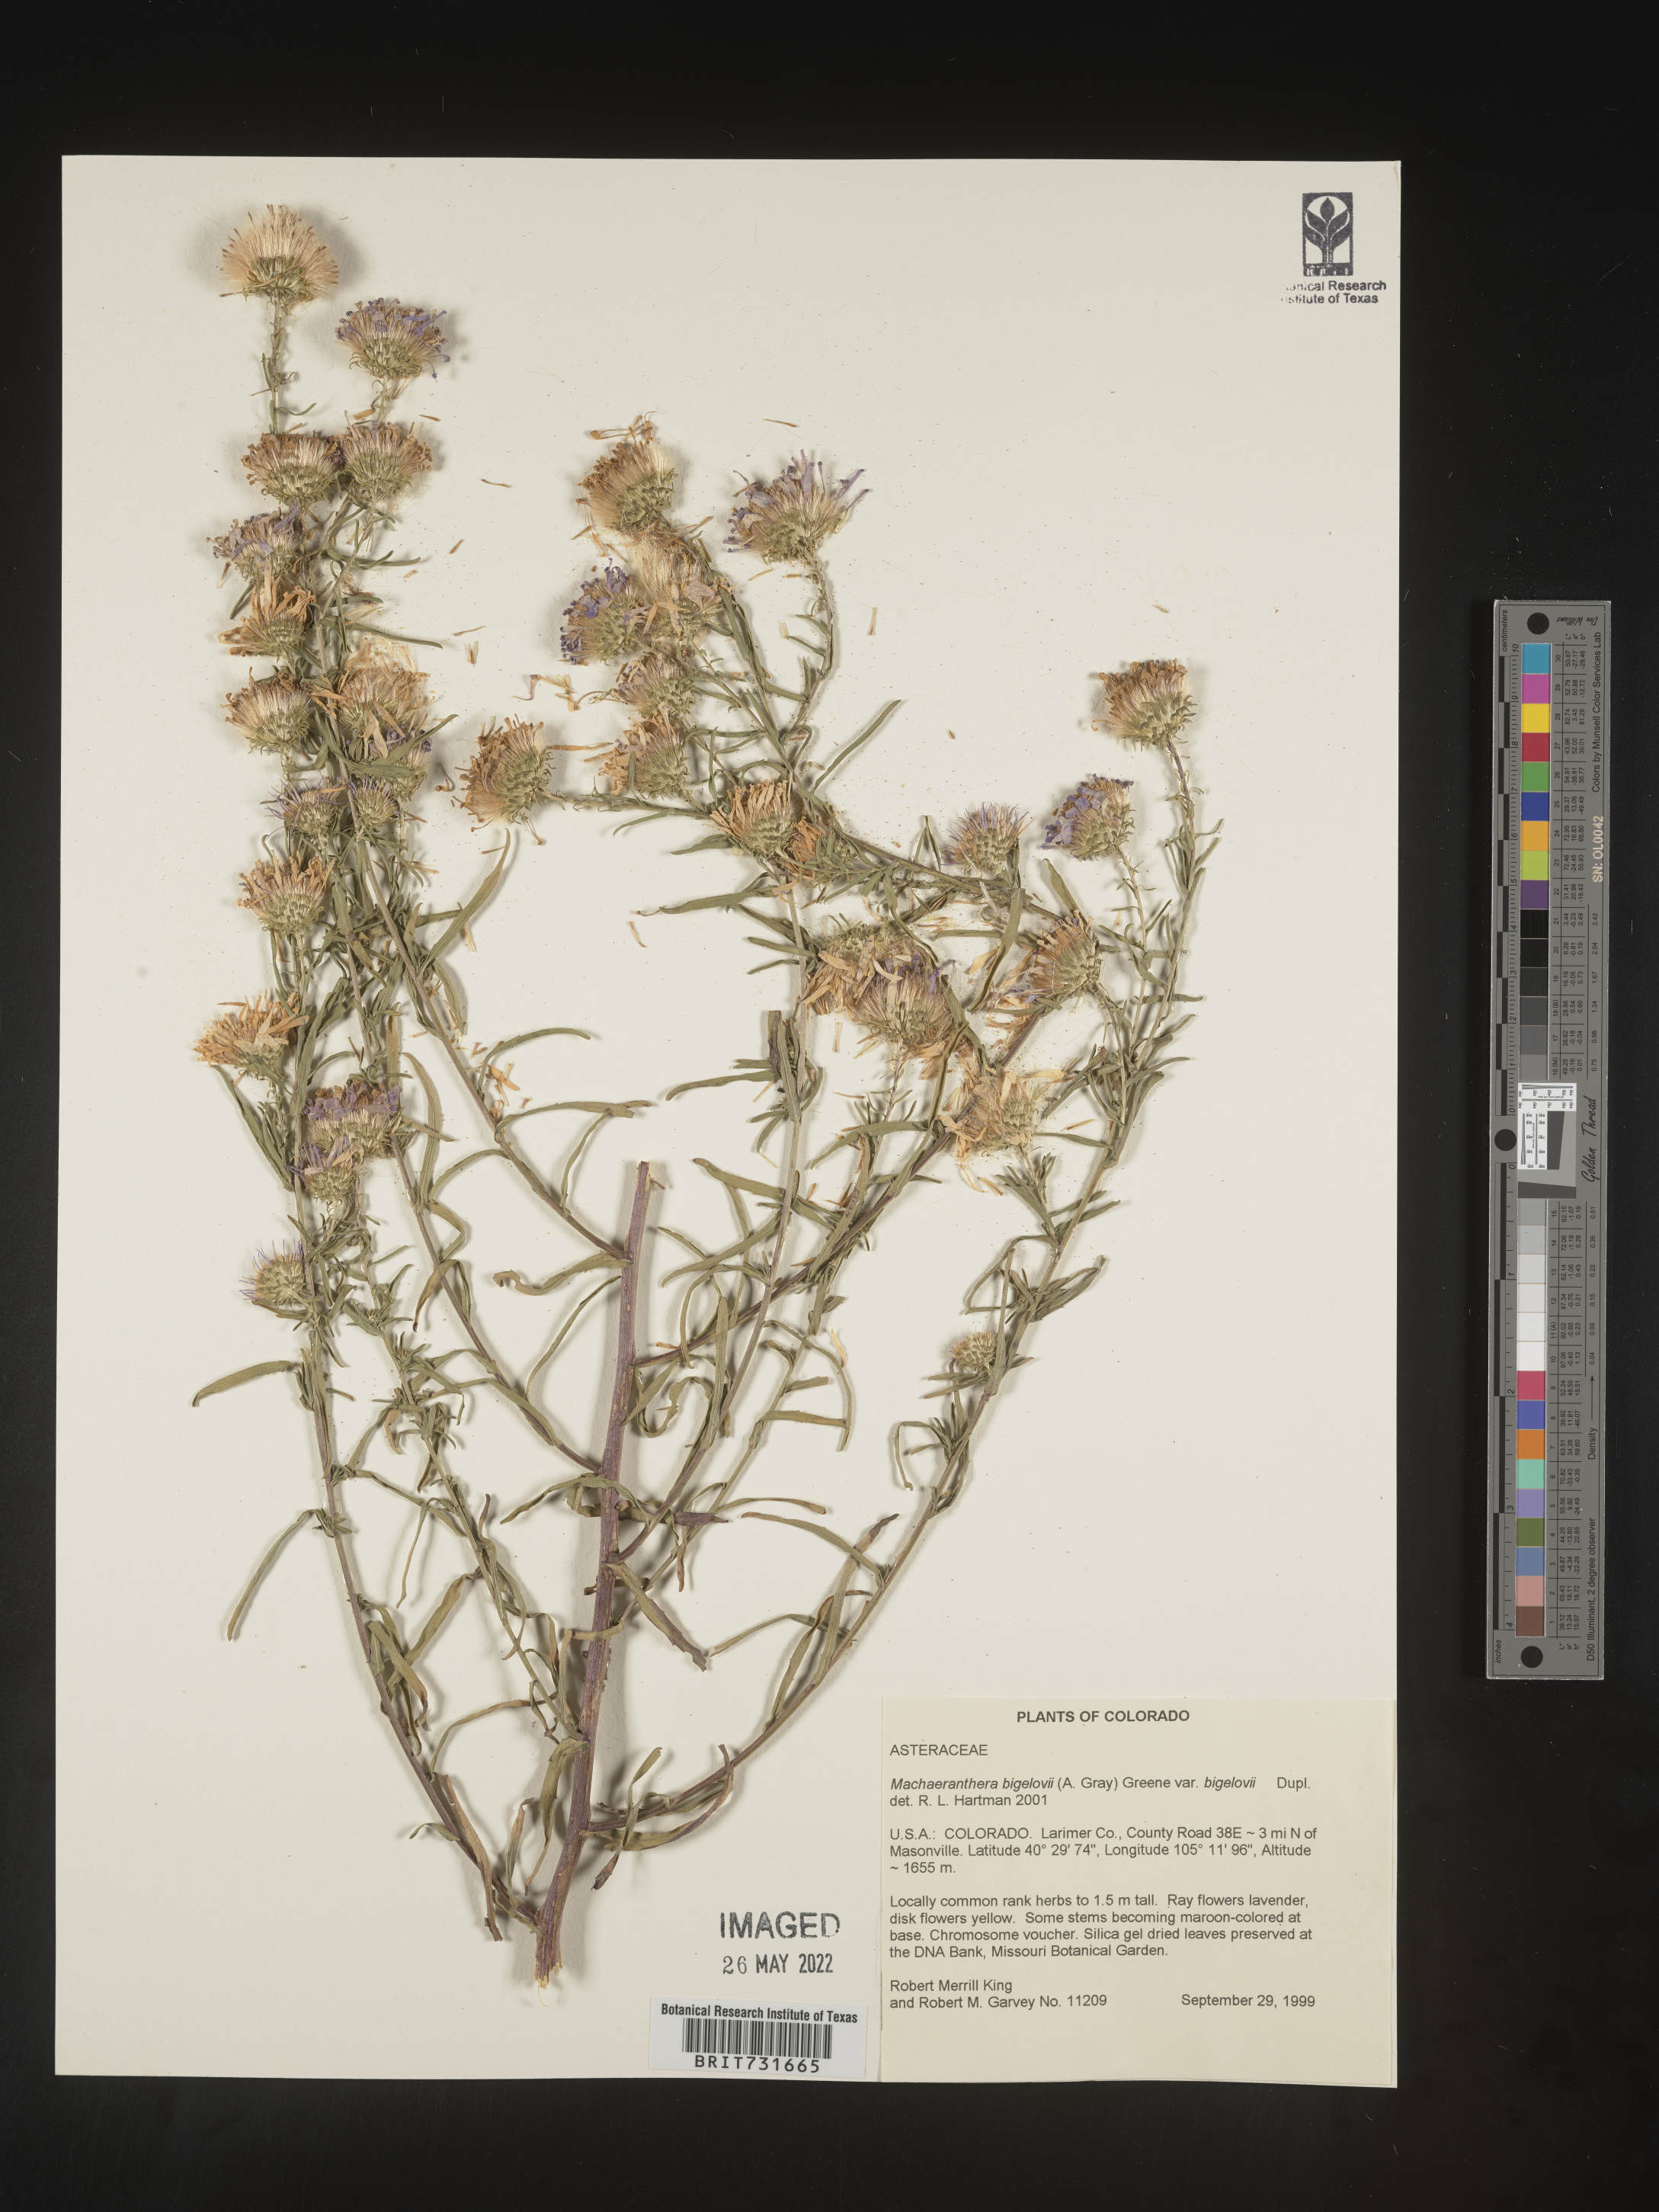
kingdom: Plantae
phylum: Tracheophyta
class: Magnoliopsida
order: Asterales
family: Asteraceae
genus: Dieteria
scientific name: Dieteria bigelovii
